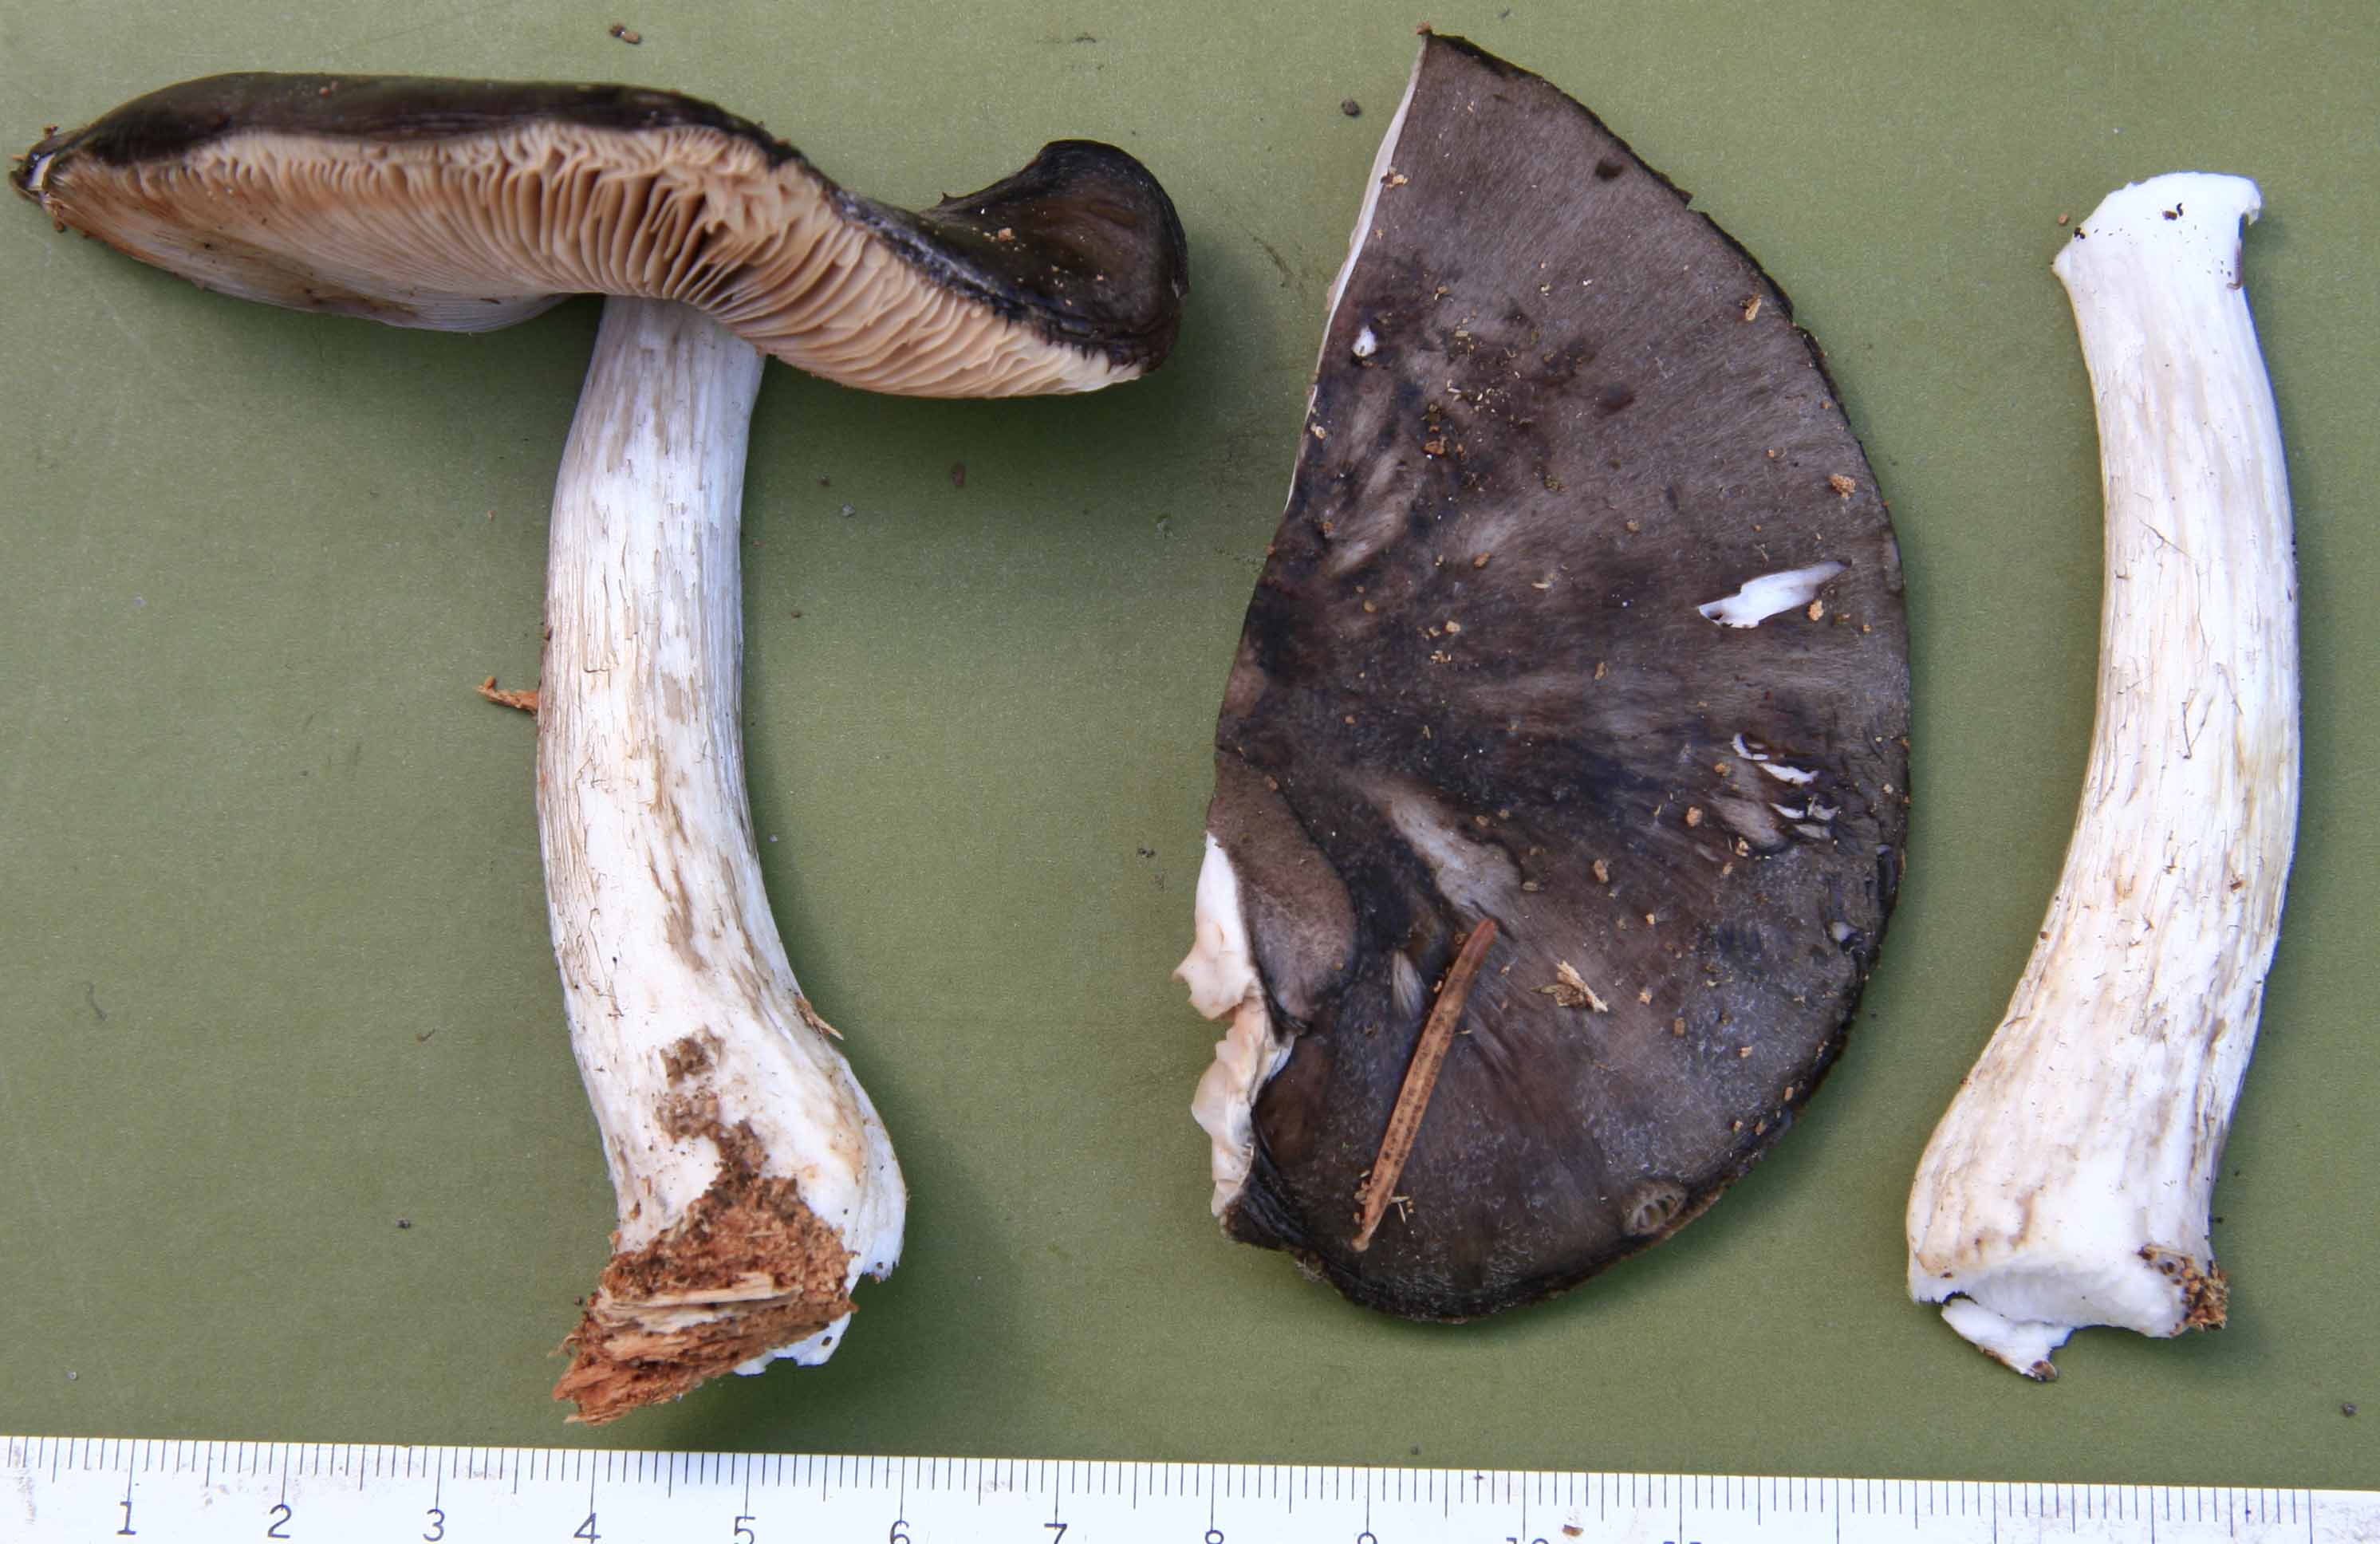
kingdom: Fungi
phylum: Basidiomycota
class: Agaricomycetes
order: Agaricales
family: Pluteaceae
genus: Pluteus
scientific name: Pluteus pouzarianus
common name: plantage-skærmhat
